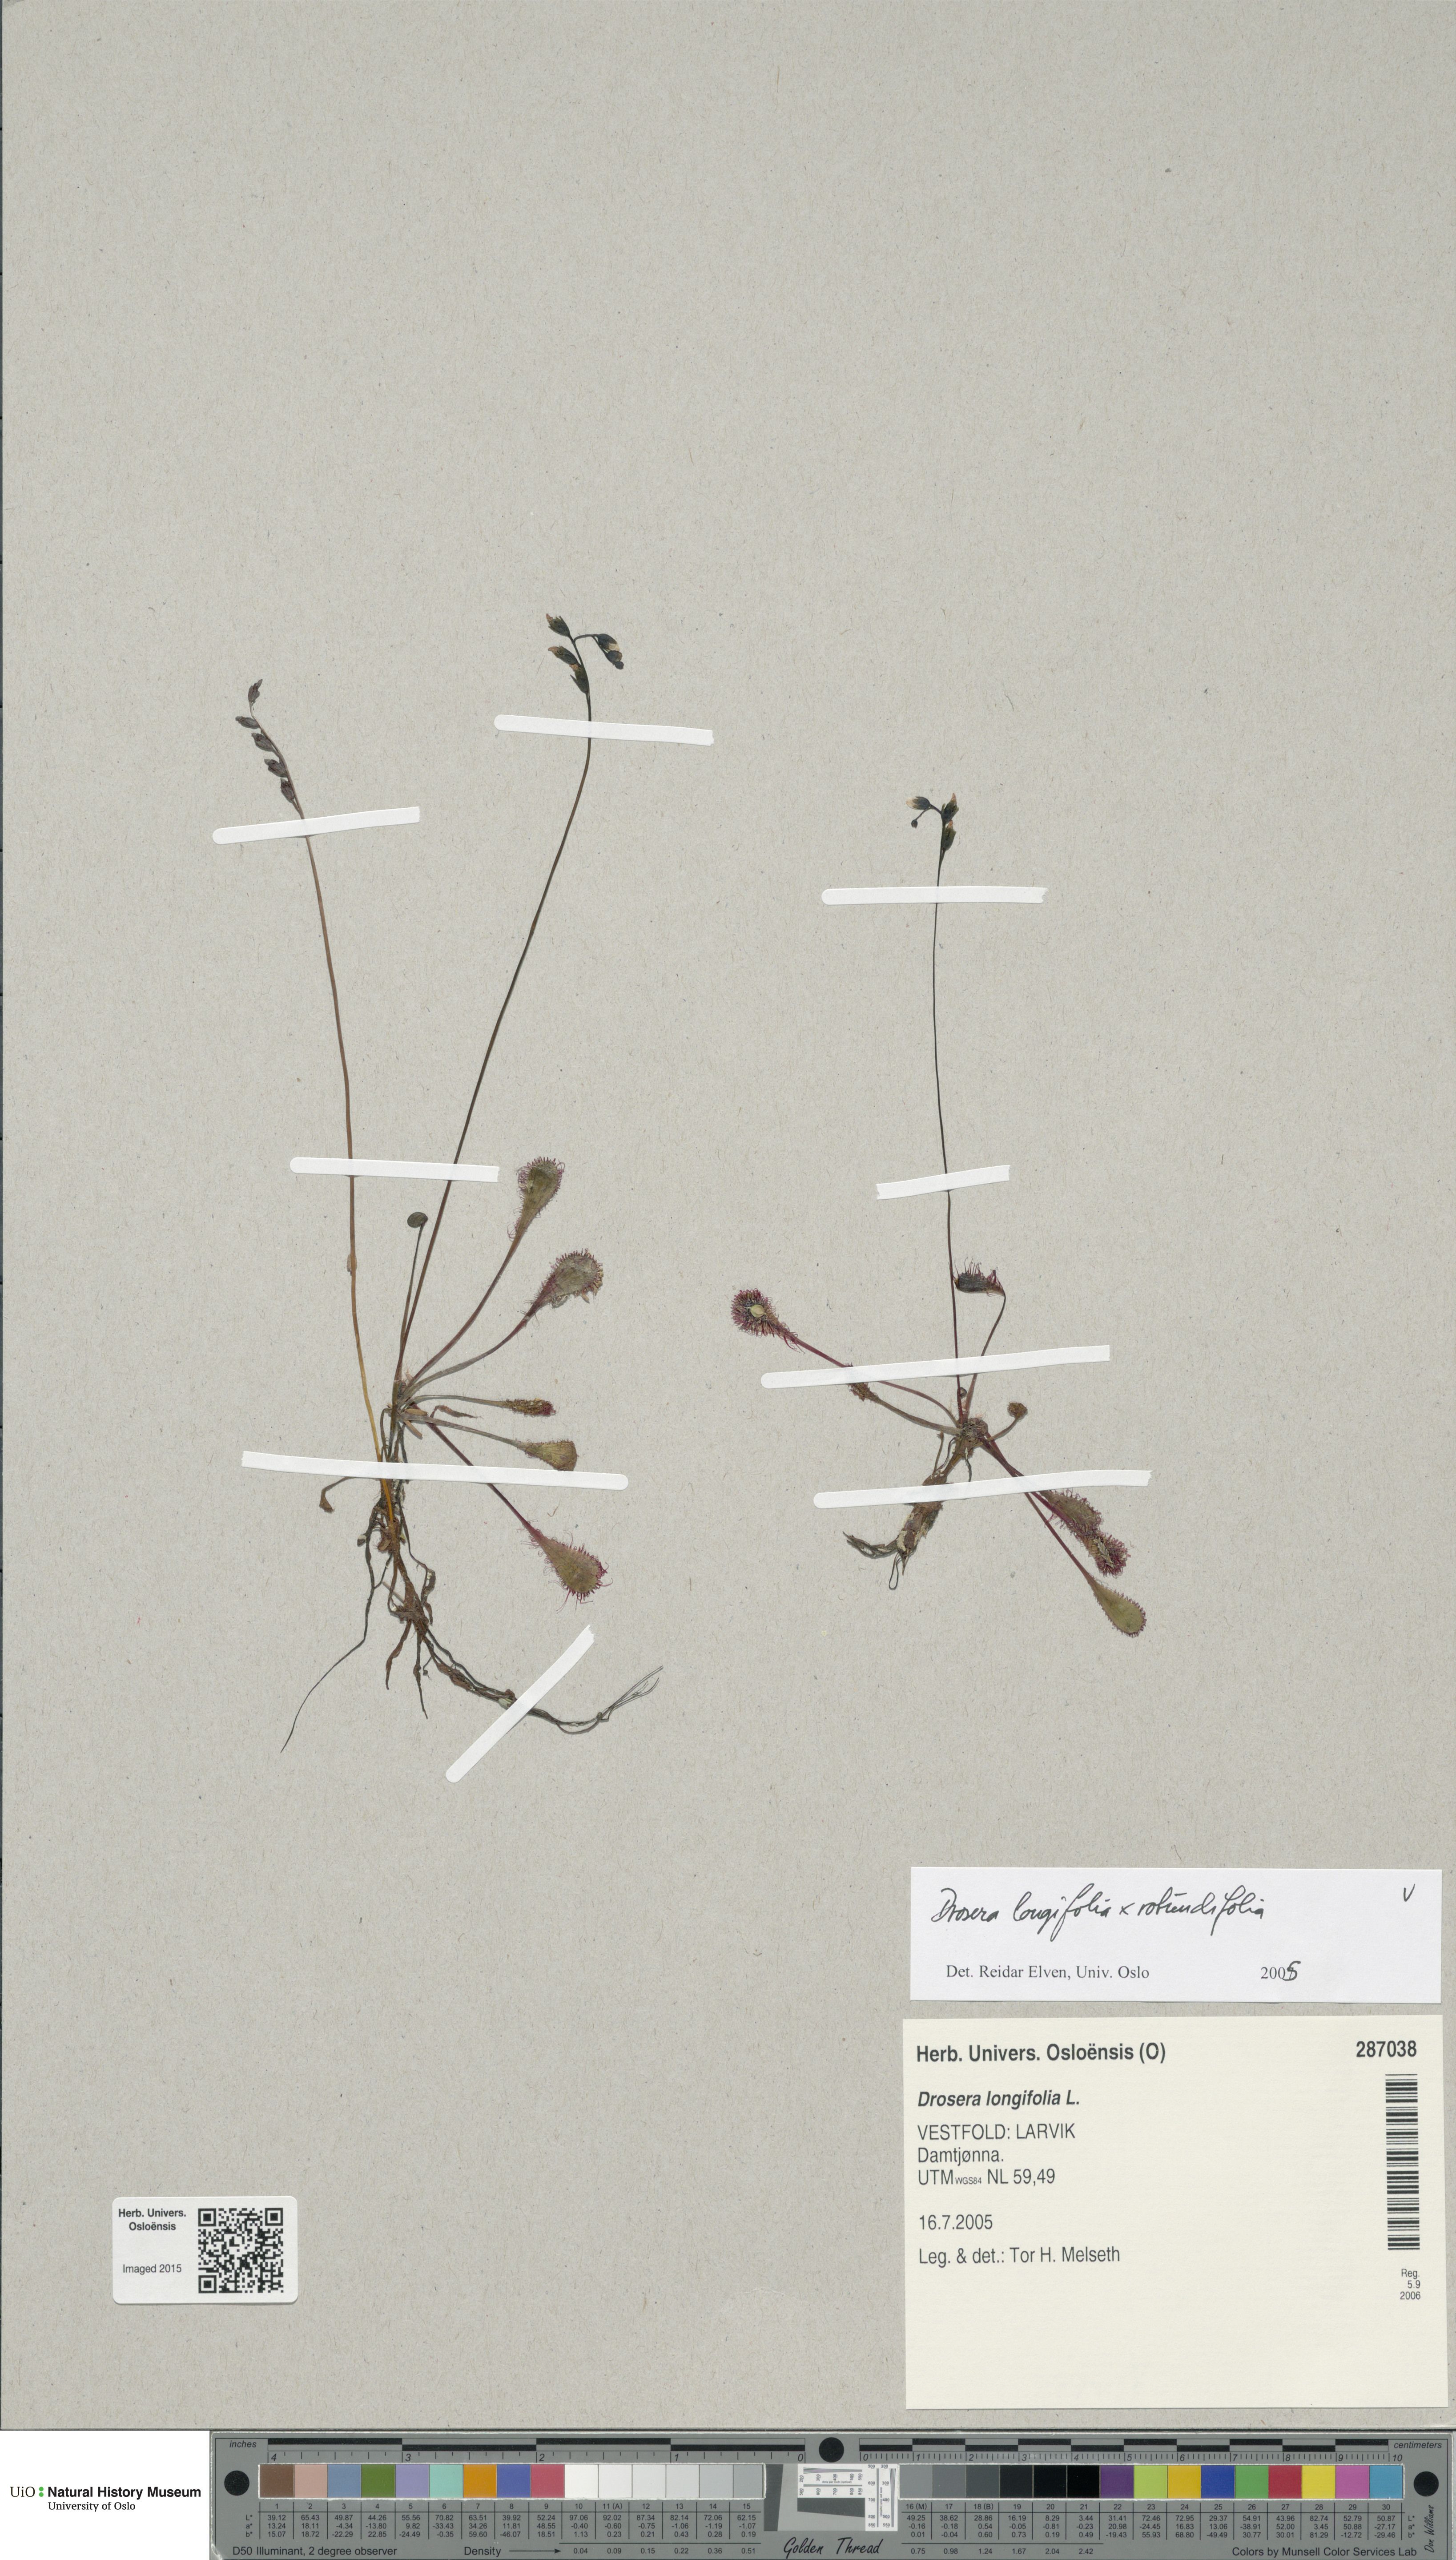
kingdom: Plantae
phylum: Tracheophyta
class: Magnoliopsida
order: Caryophyllales
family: Droseraceae
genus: Drosera
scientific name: Drosera
